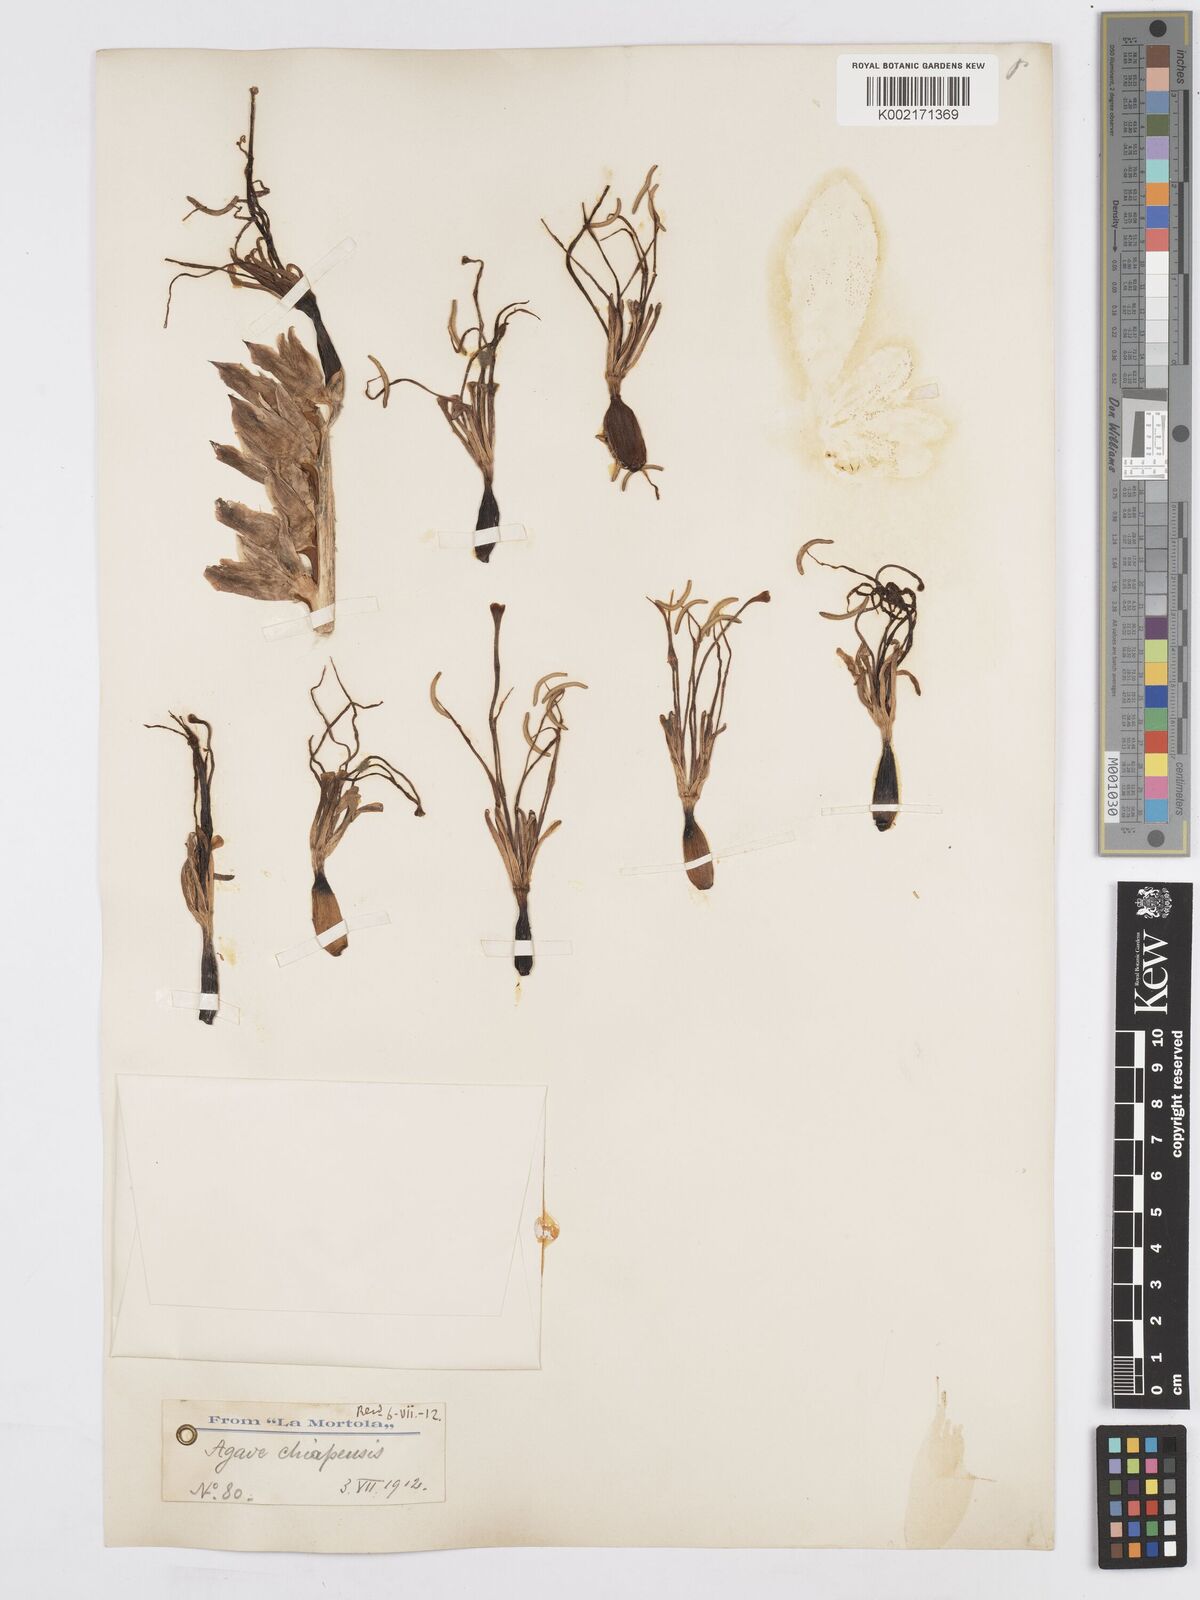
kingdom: Plantae
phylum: Tracheophyta
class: Liliopsida
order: Asparagales
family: Asparagaceae
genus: Agave
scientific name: Agave chiapensis
